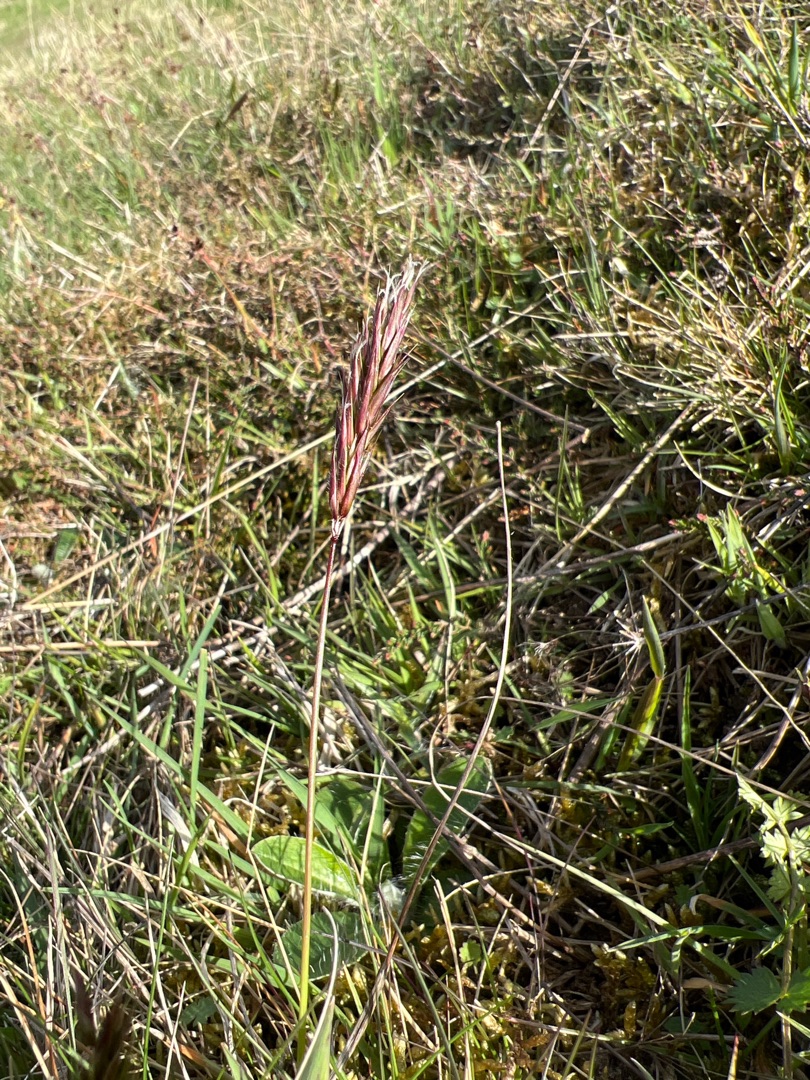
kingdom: Plantae
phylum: Tracheophyta
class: Liliopsida
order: Poales
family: Poaceae
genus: Anthoxanthum
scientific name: Anthoxanthum odoratum
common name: Vellugtende gulaks
